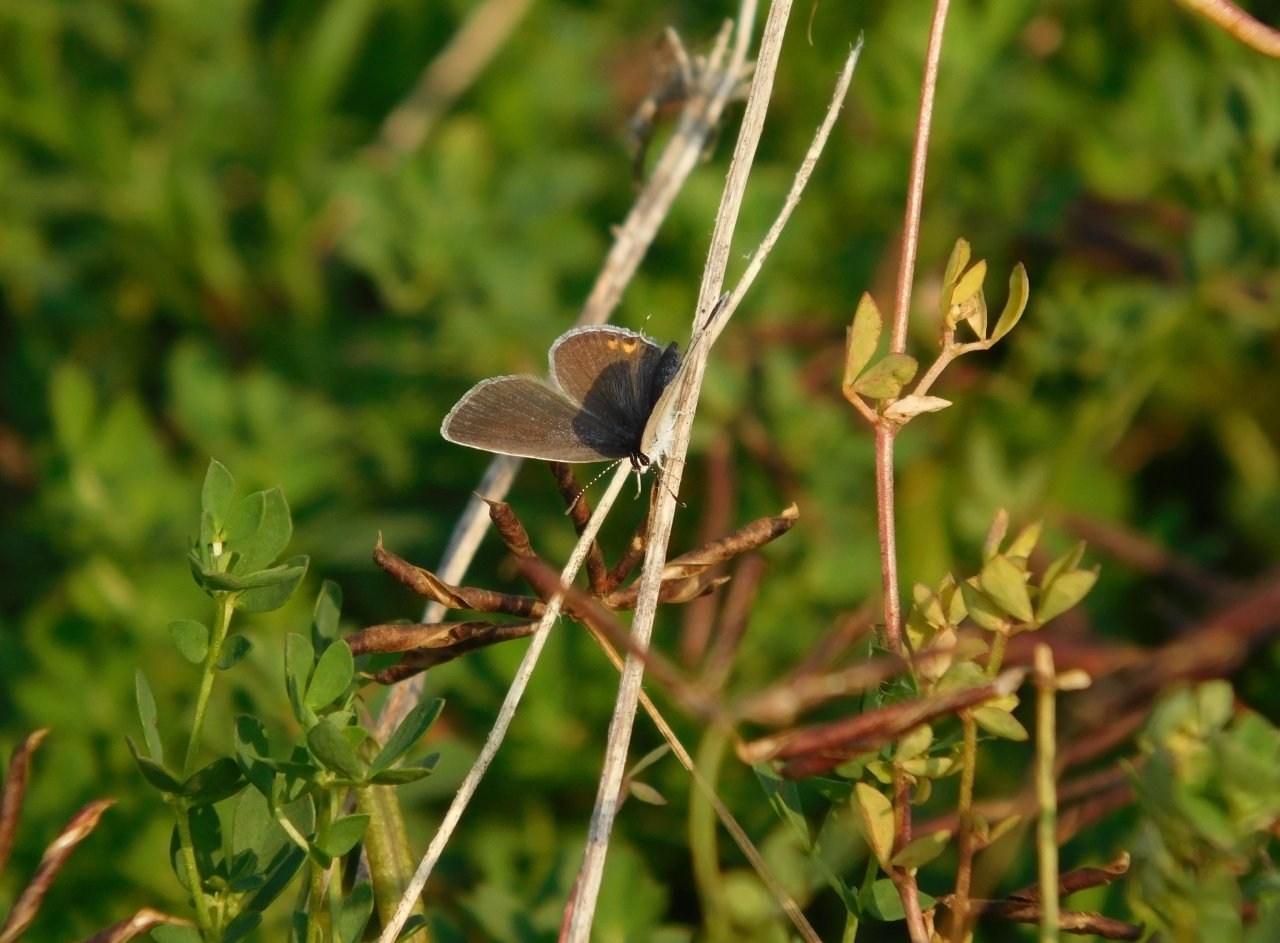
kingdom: Animalia
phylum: Arthropoda
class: Insecta
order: Lepidoptera
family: Lycaenidae
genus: Elkalyce
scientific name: Elkalyce comyntas
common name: Eastern Tailed-Blue
